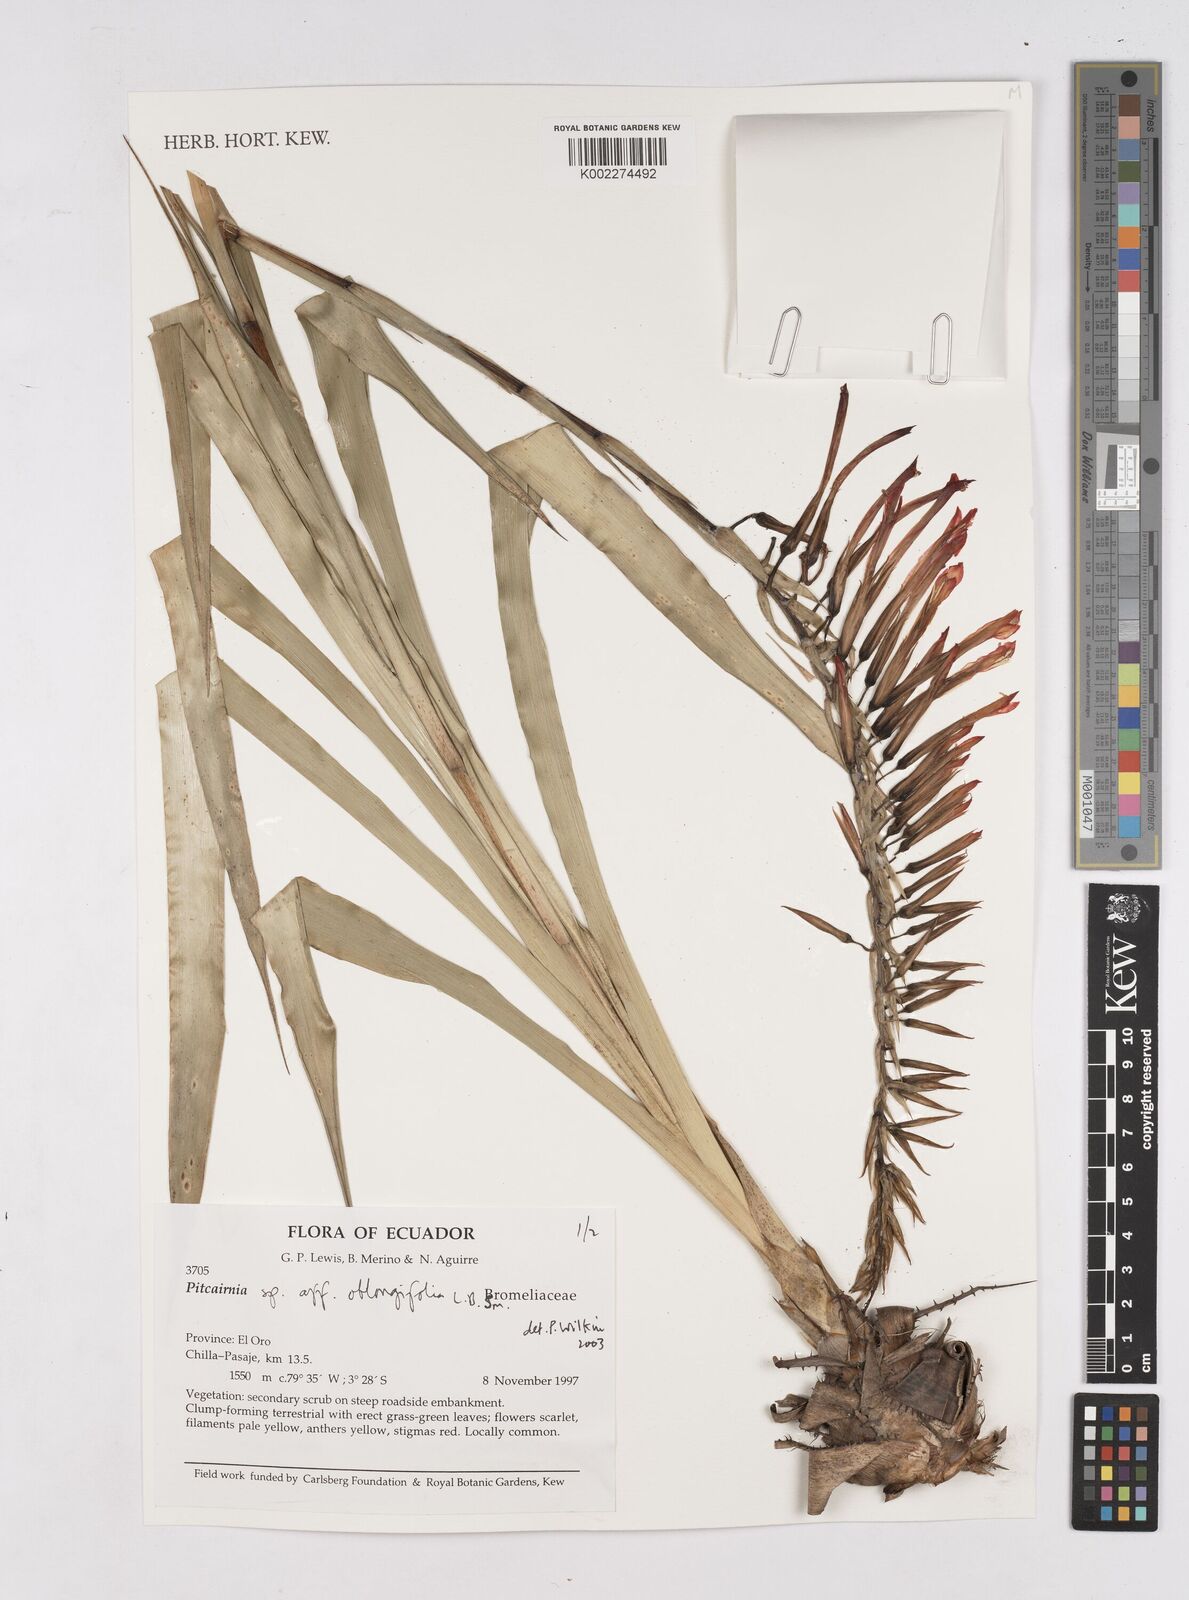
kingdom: Plantae
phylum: Tracheophyta
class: Liliopsida
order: Poales
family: Bromeliaceae
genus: Pitcairnia
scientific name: Pitcairnia bergii
